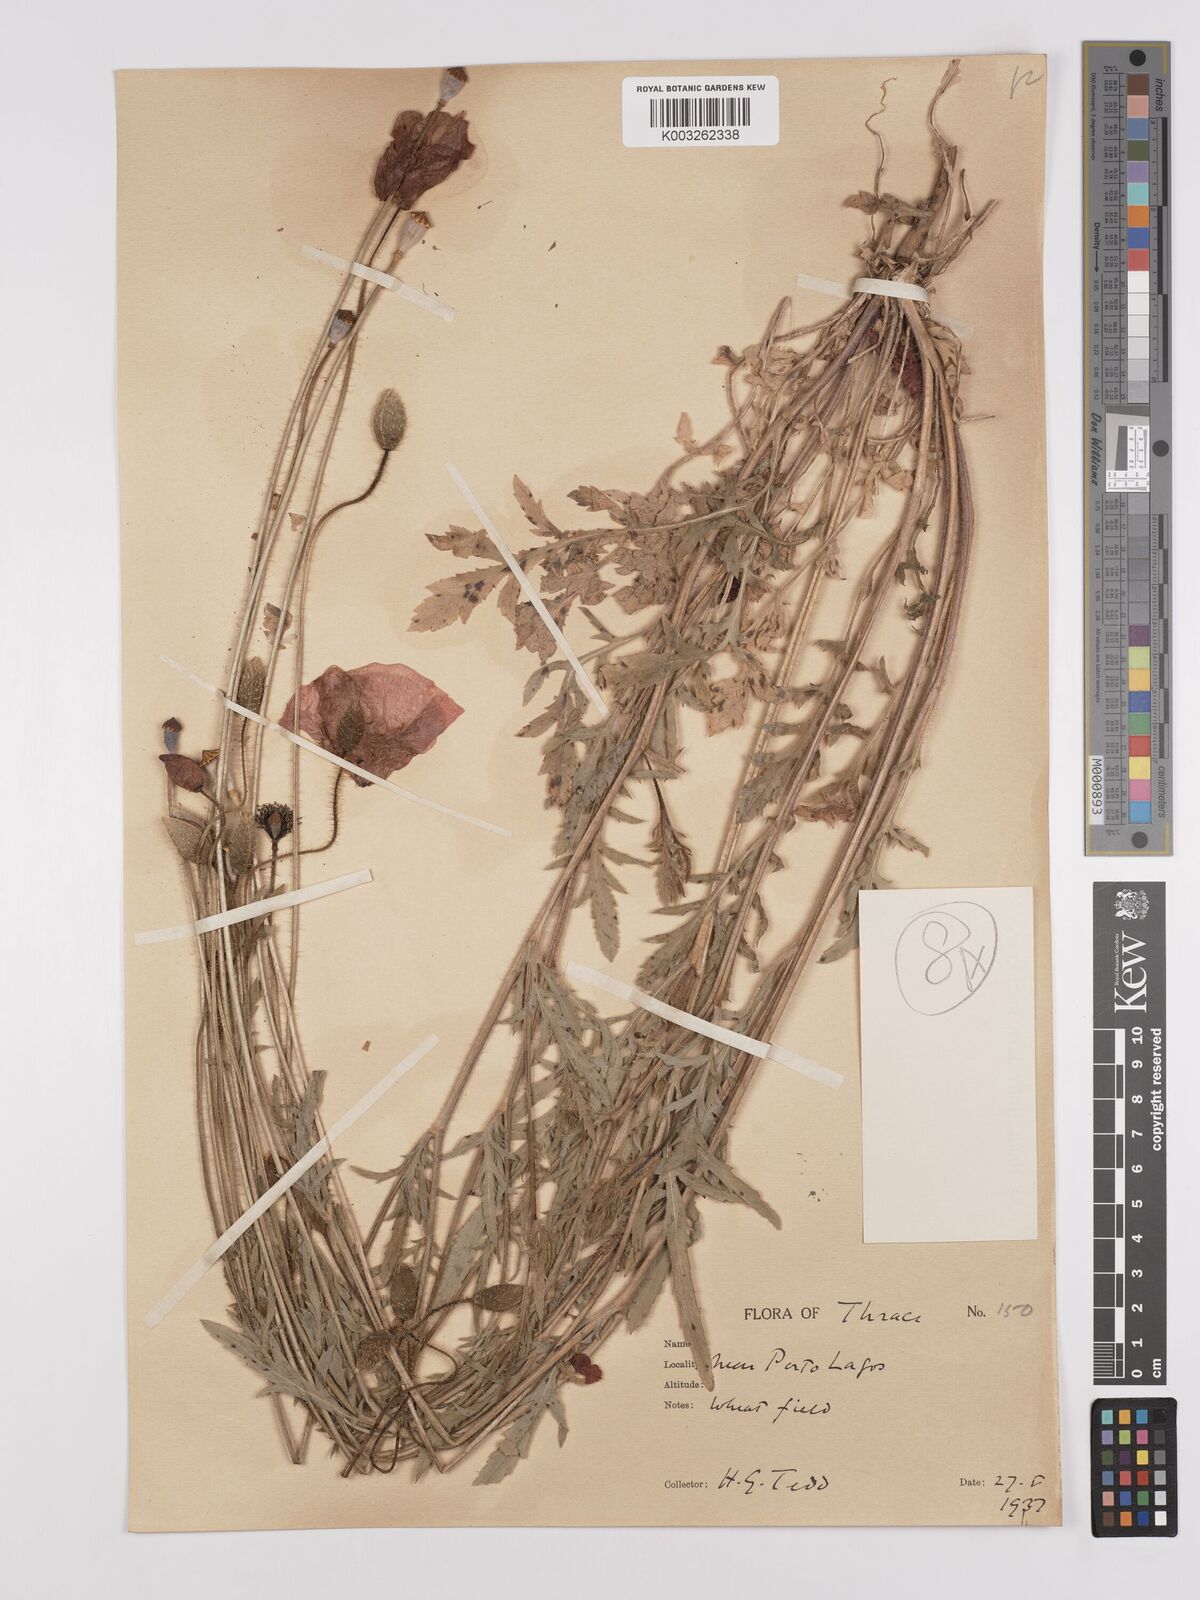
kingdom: Plantae
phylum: Tracheophyta
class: Magnoliopsida
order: Ranunculales
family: Papaveraceae
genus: Papaver
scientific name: Papaver rhoeas
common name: Corn poppy
